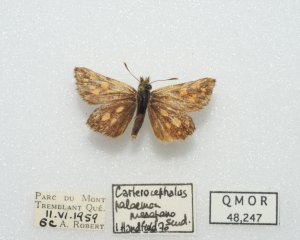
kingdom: Animalia
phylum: Arthropoda
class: Insecta
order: Lepidoptera
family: Hesperiidae
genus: Carterocephalus
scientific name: Carterocephalus palaemon
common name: Chequered Skipper
